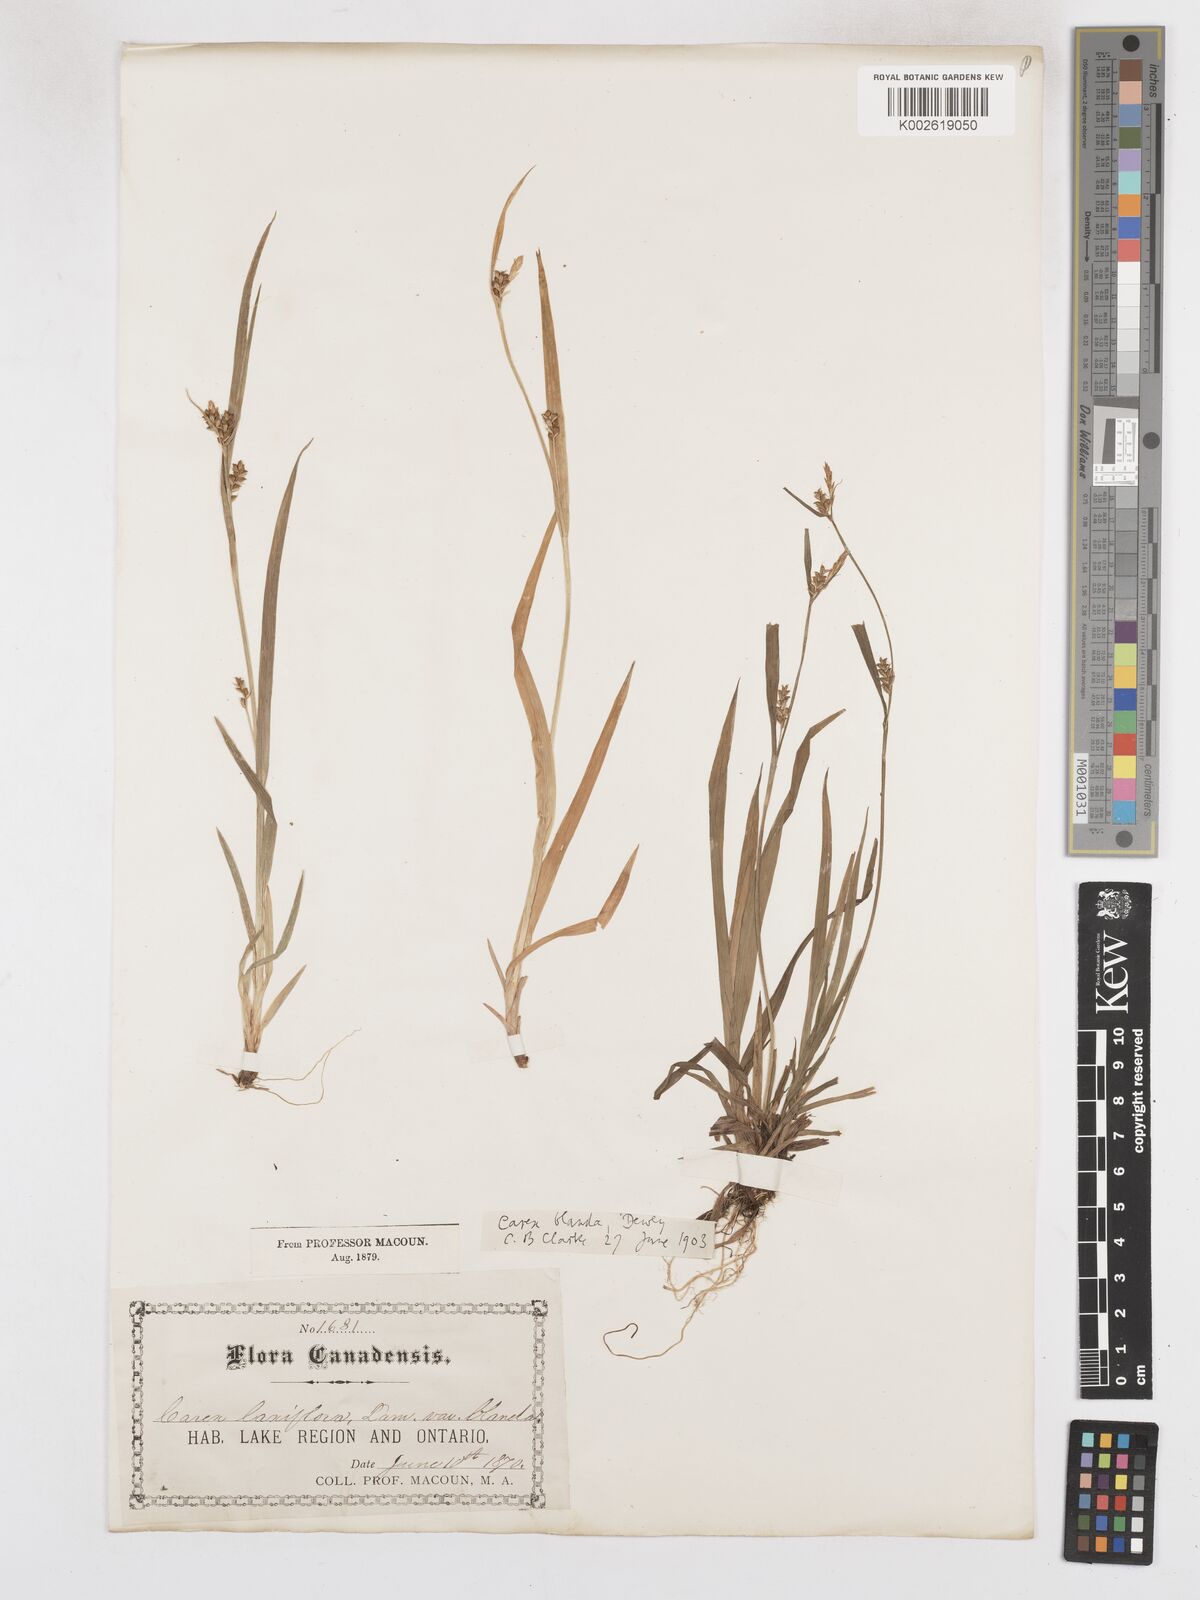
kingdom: Plantae
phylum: Tracheophyta
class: Liliopsida
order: Poales
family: Cyperaceae
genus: Carex
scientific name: Carex blanda
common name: Bland sedge
